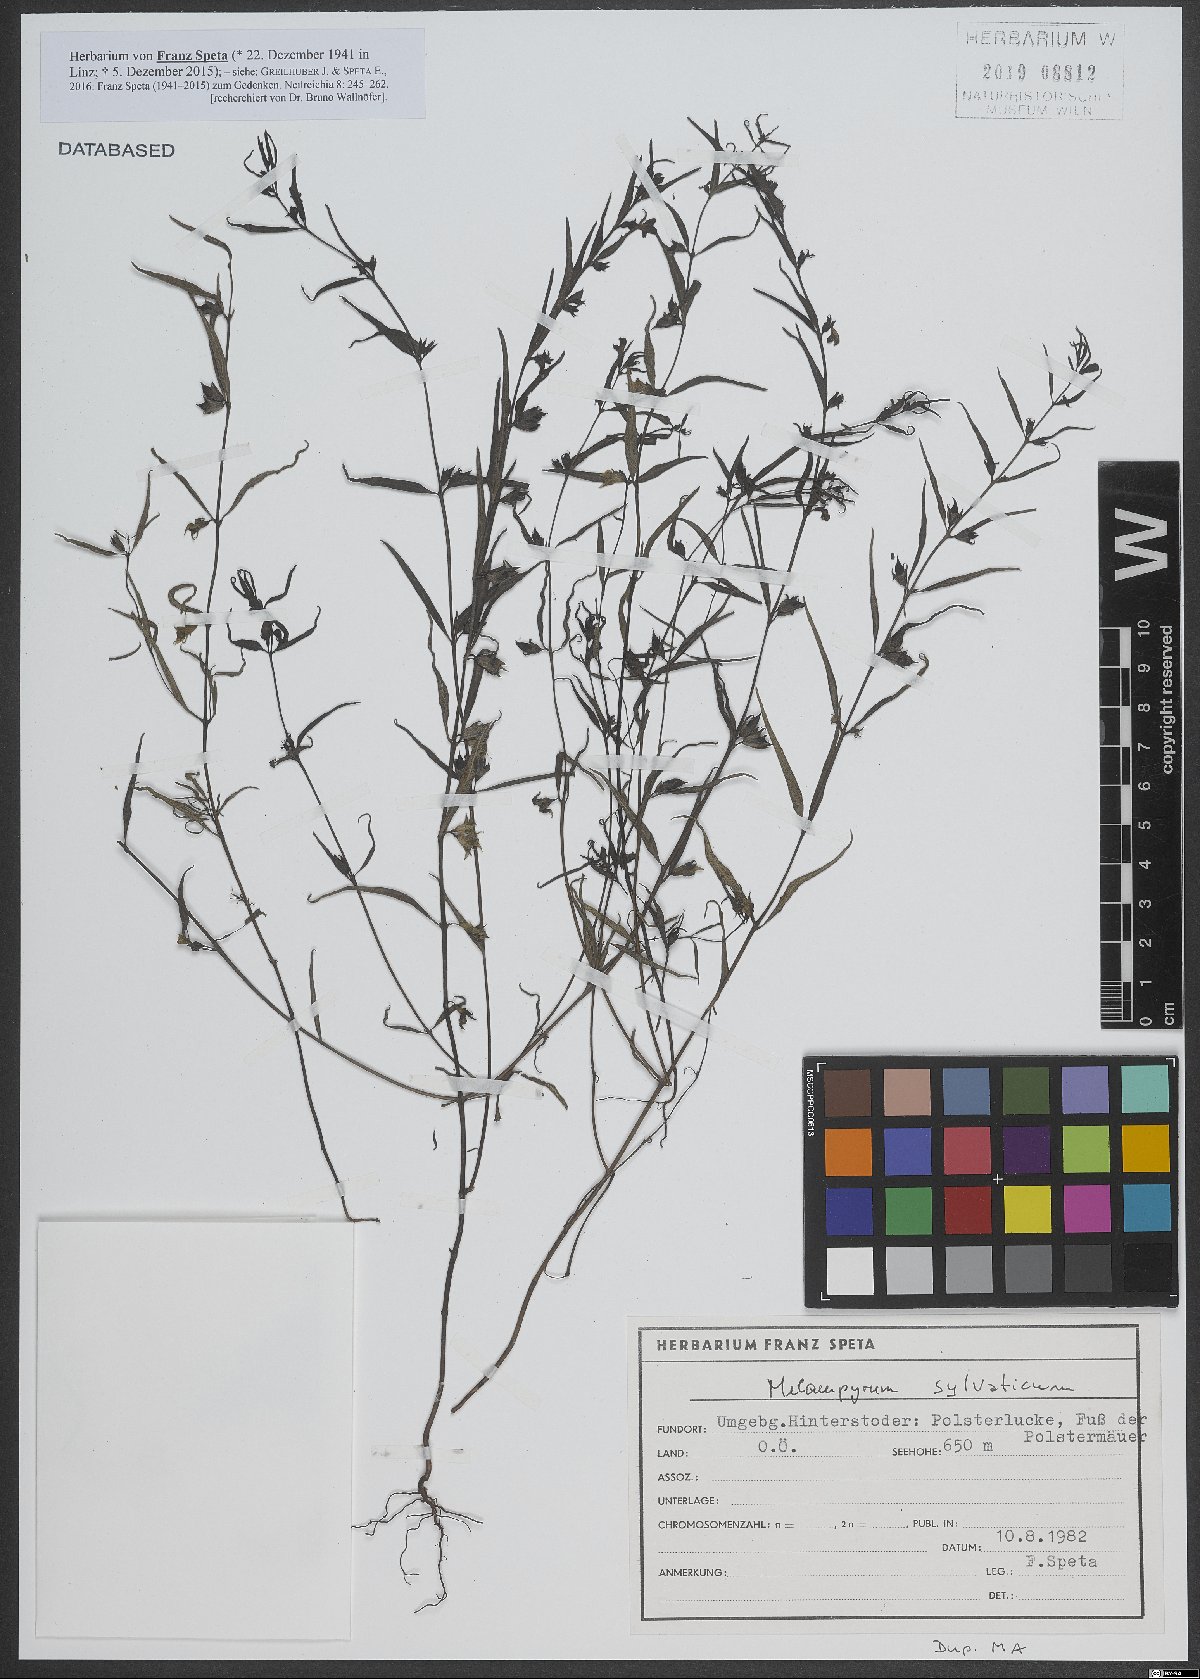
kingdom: Plantae
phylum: Tracheophyta
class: Magnoliopsida
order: Lamiales
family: Orobanchaceae
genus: Melampyrum
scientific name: Melampyrum sylvaticum
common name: Small cow-wheat
